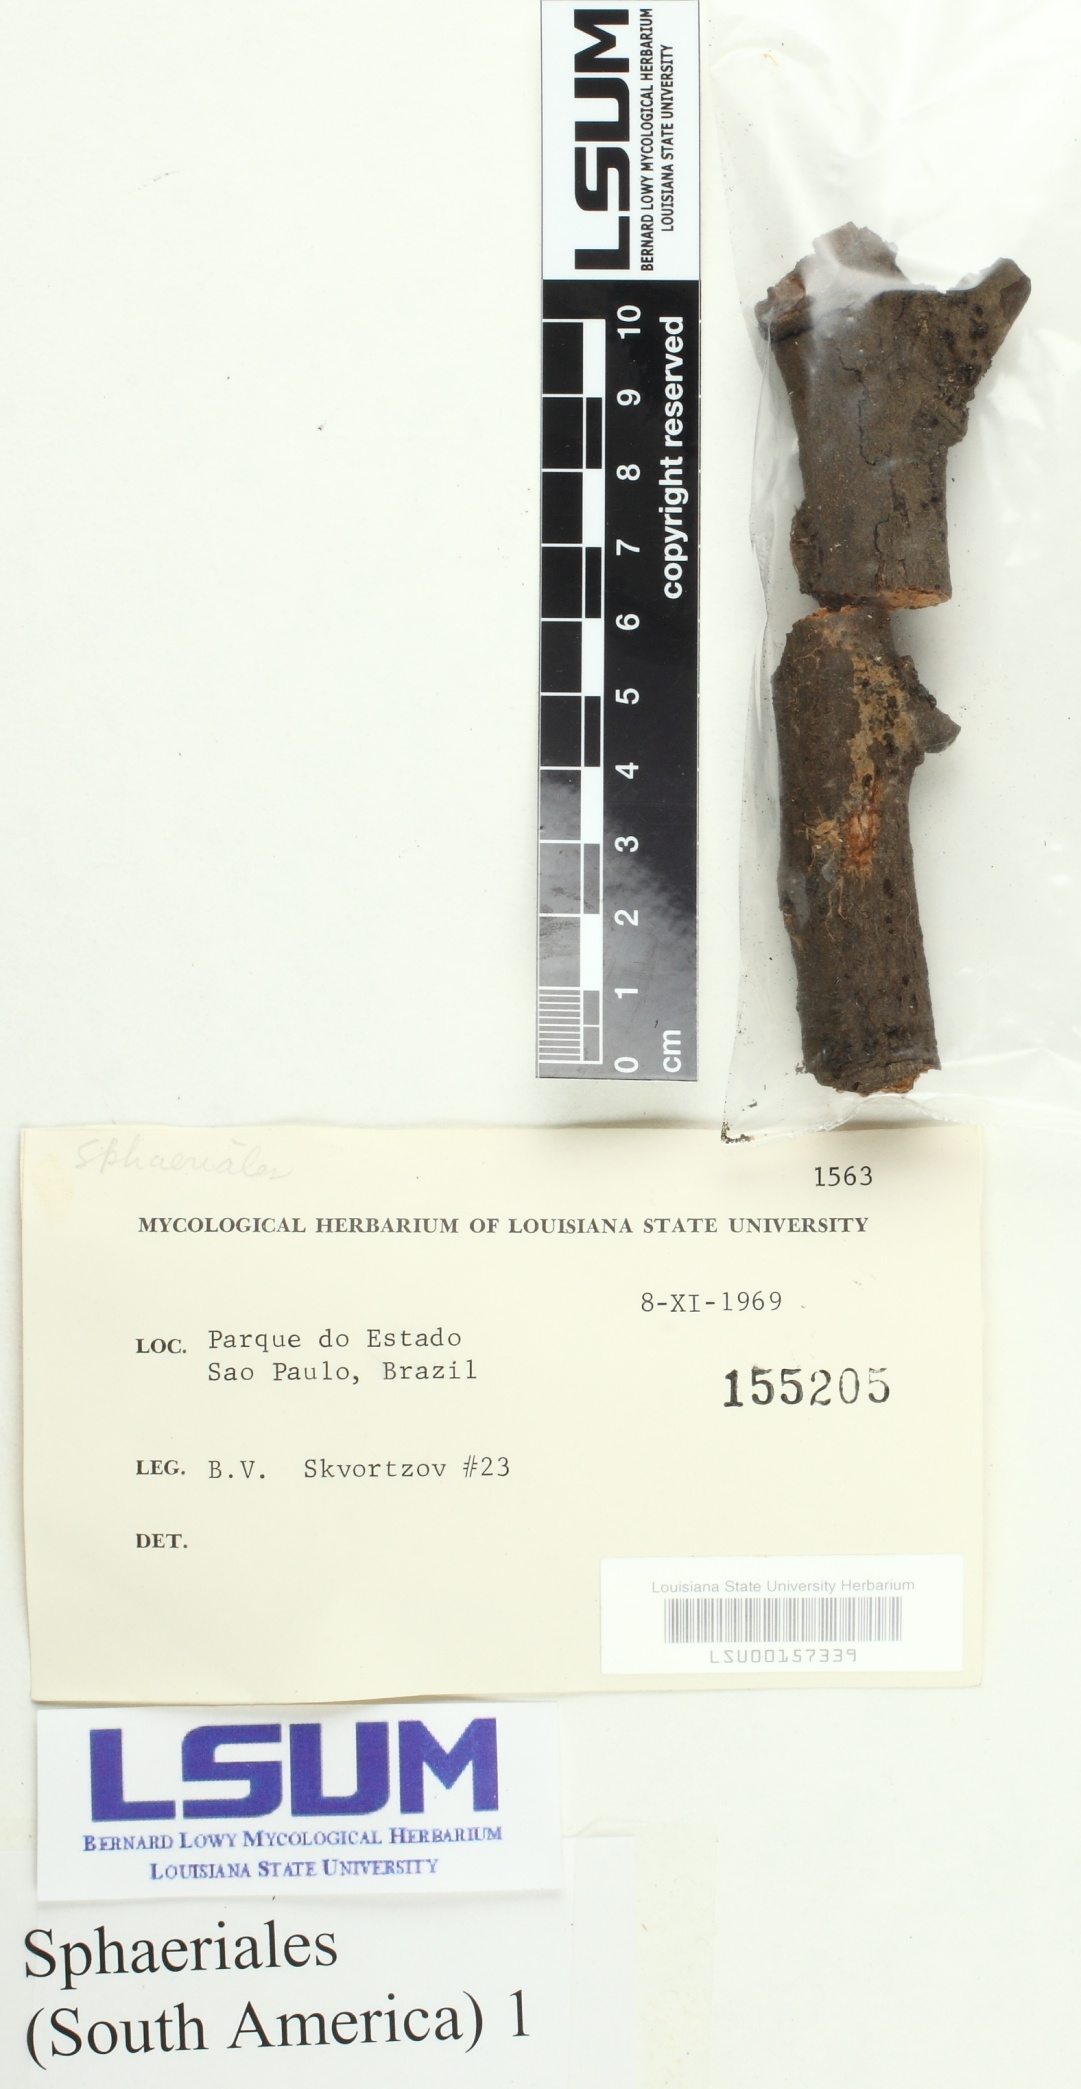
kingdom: Fungi
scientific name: Fungi
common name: Fungi
